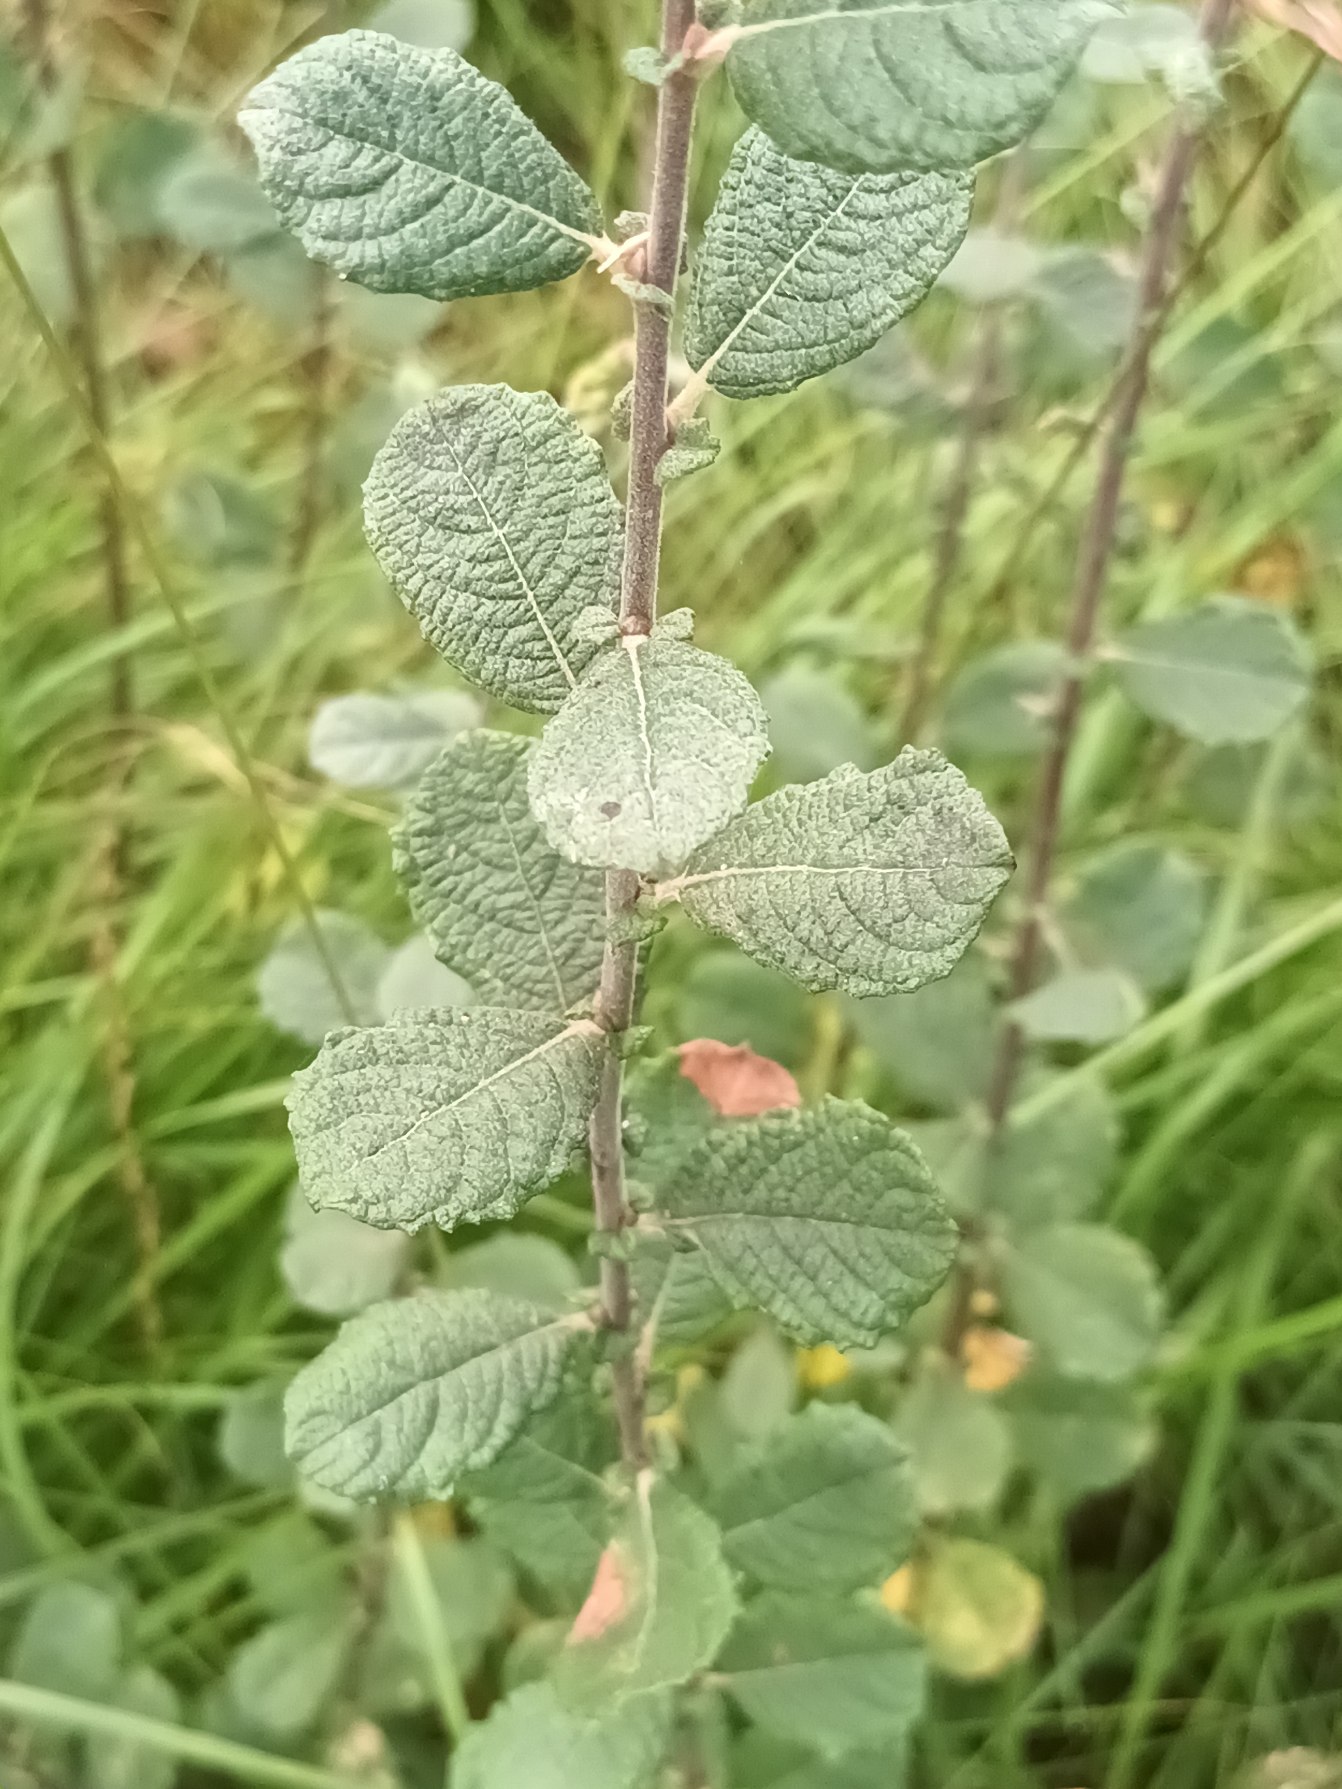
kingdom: Plantae
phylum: Tracheophyta
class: Magnoliopsida
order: Malpighiales
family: Salicaceae
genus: Salix
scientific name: Salix aurita
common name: Øret pil
